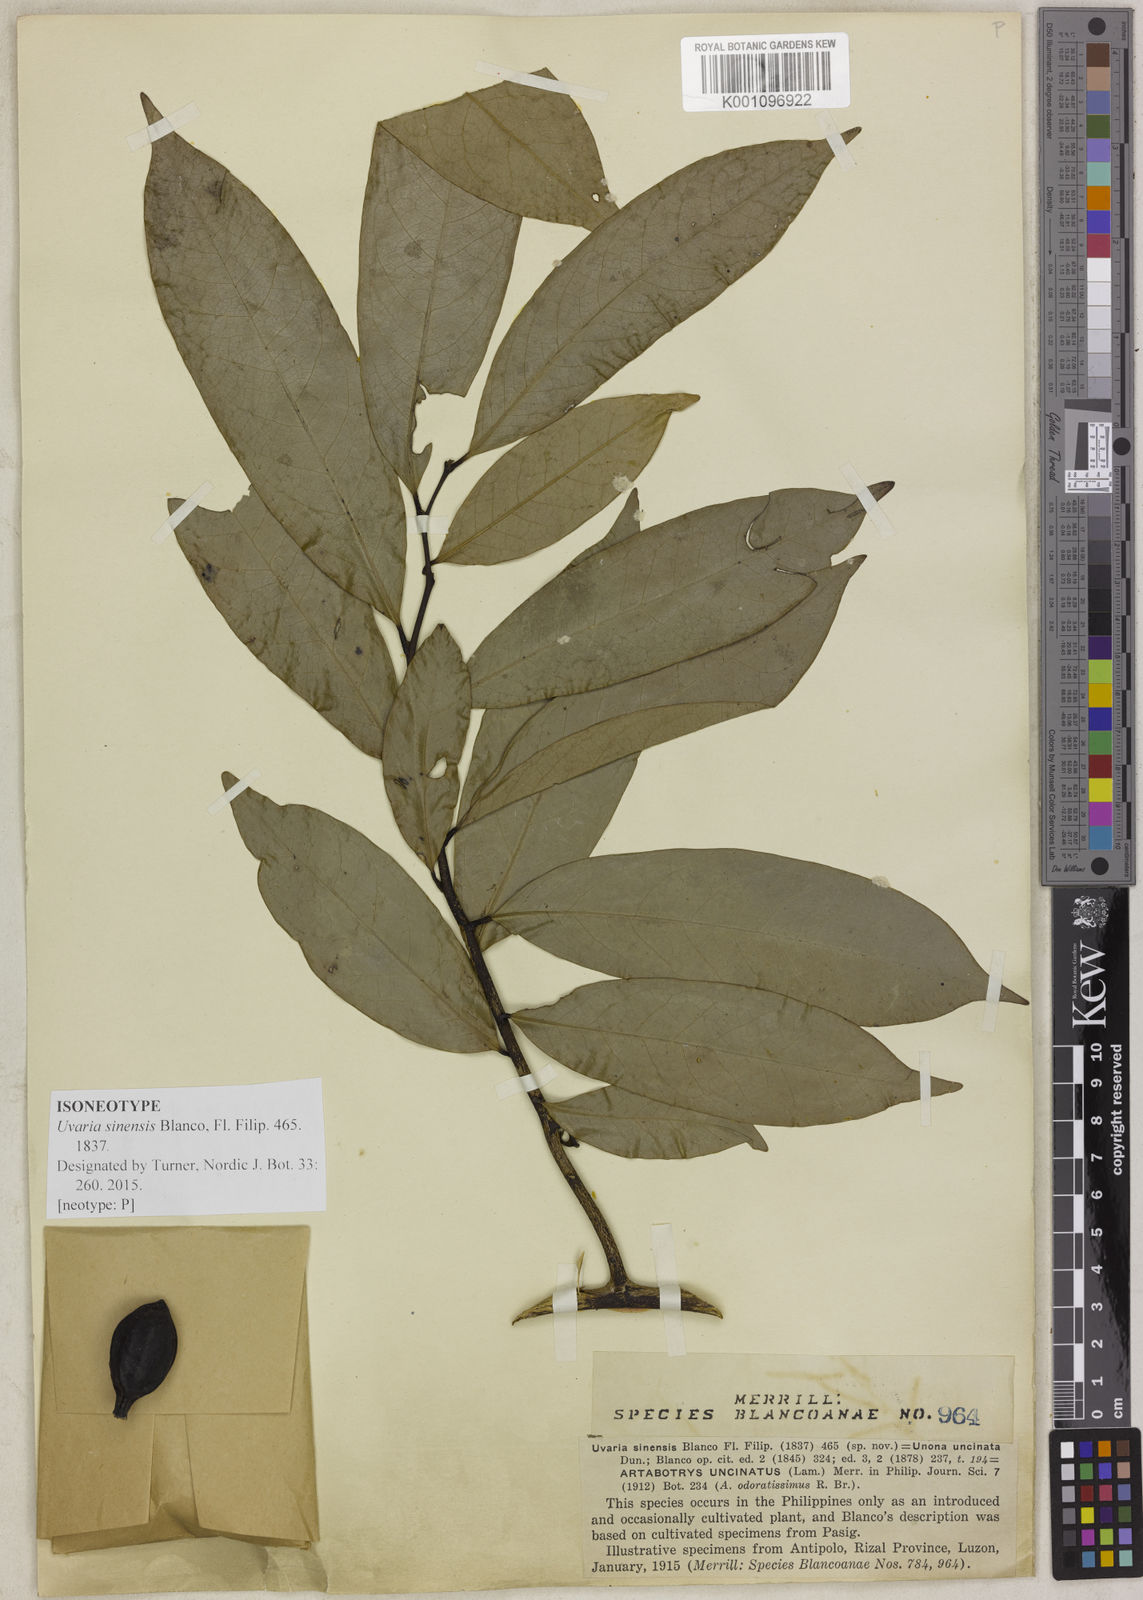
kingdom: Plantae
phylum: Tracheophyta
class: Magnoliopsida
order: Magnoliales
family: Annonaceae
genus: Artabotrys
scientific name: Artabotrys hexapetalus
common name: Climbing ilang-ilang
